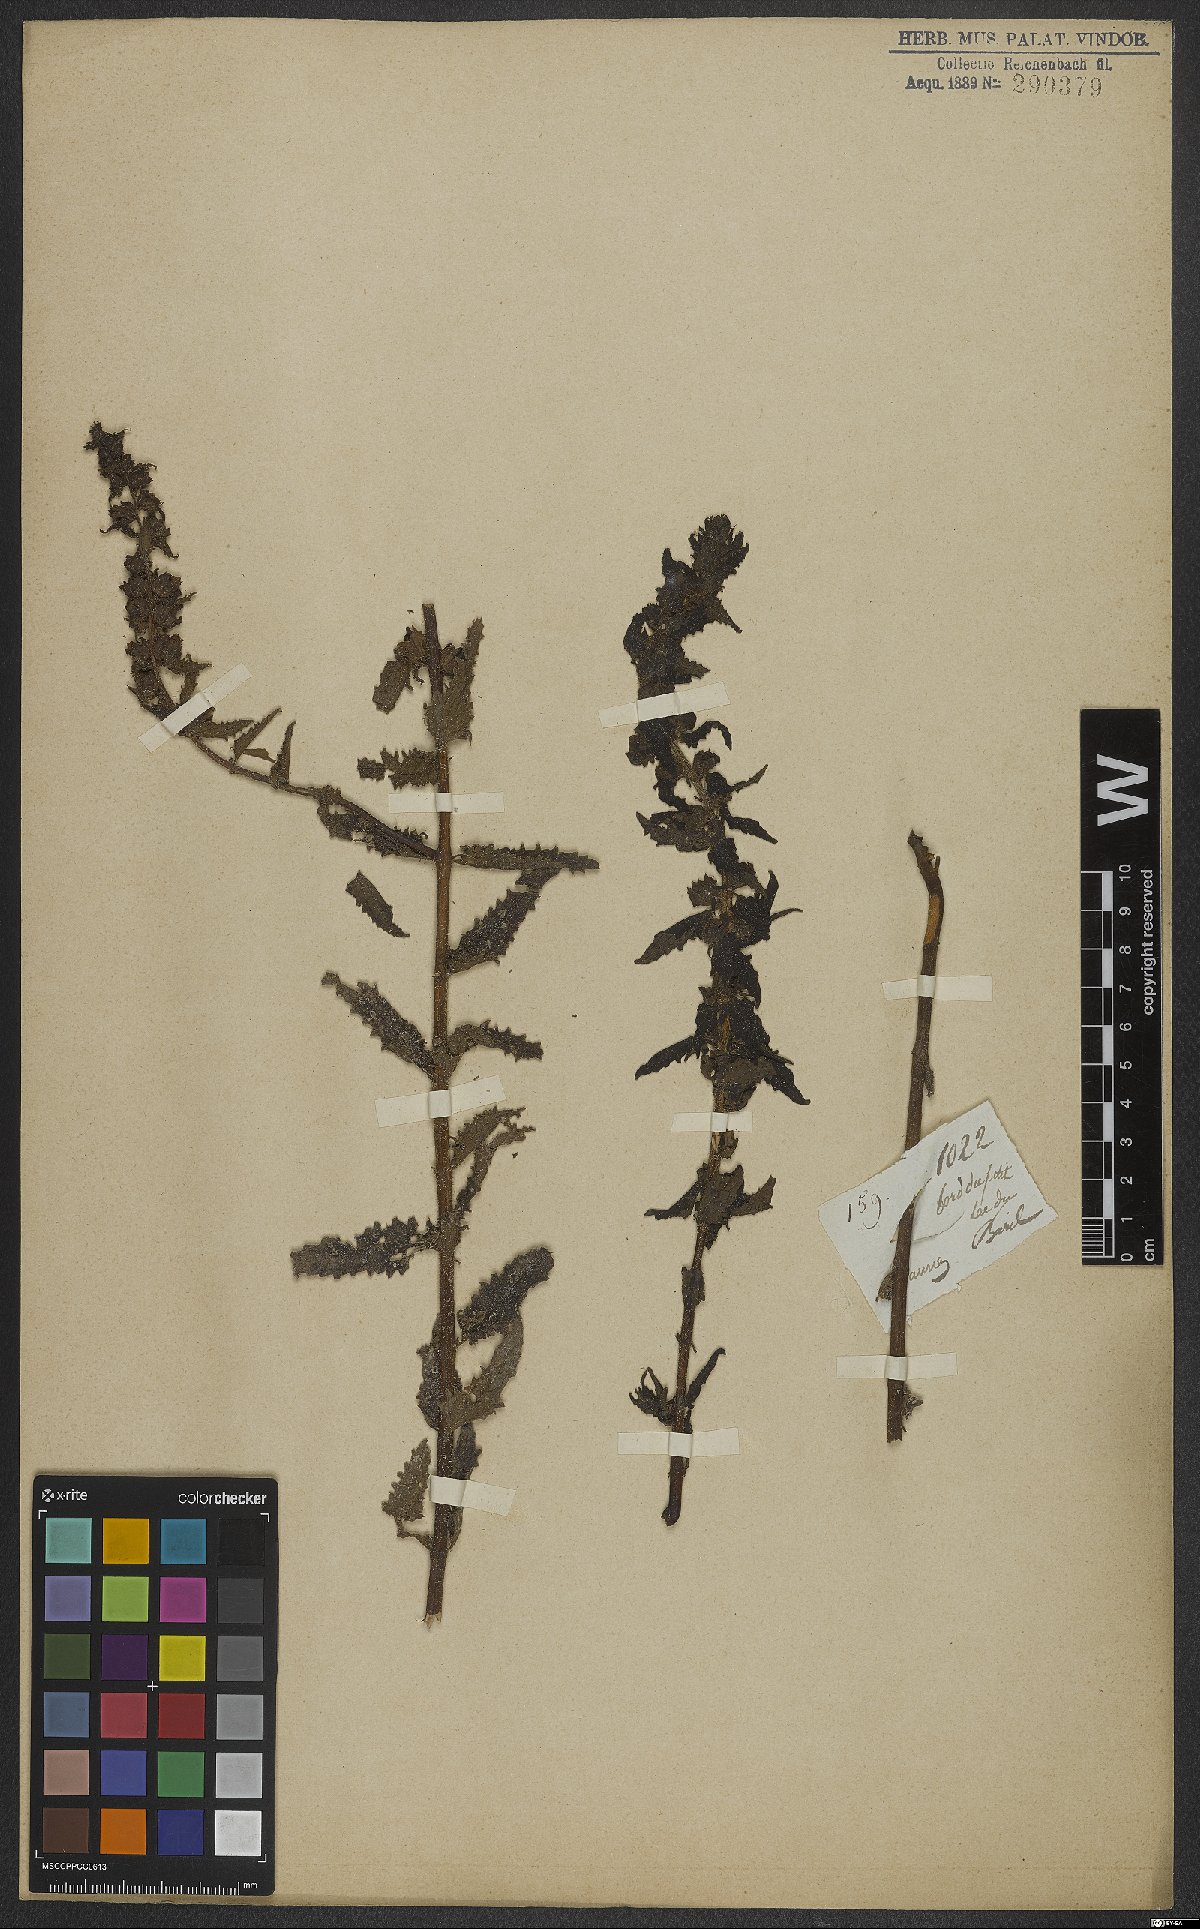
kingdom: Plantae
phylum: Tracheophyta
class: Magnoliopsida
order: Lamiales
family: Orobanchaceae
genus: Melasma
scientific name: Melasma melampyroides
